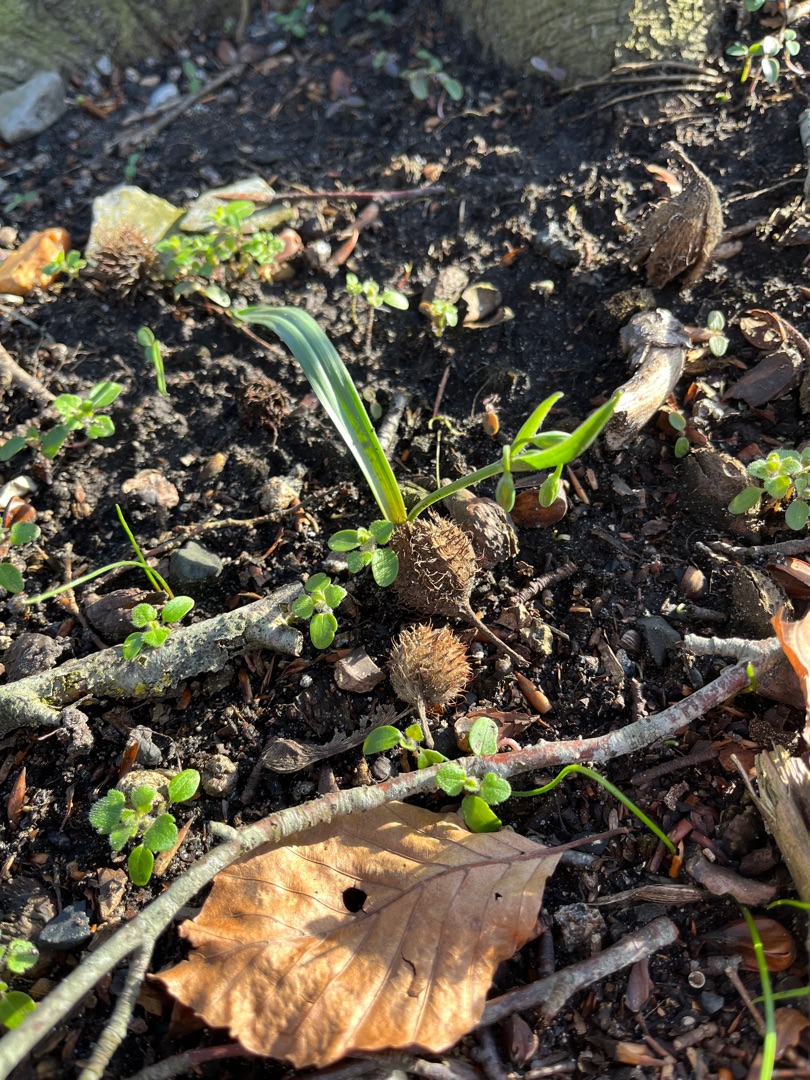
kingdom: Plantae
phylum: Tracheophyta
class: Liliopsida
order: Liliales
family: Liliaceae
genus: Gagea
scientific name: Gagea lutea
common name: Almindelig guldstjerne
